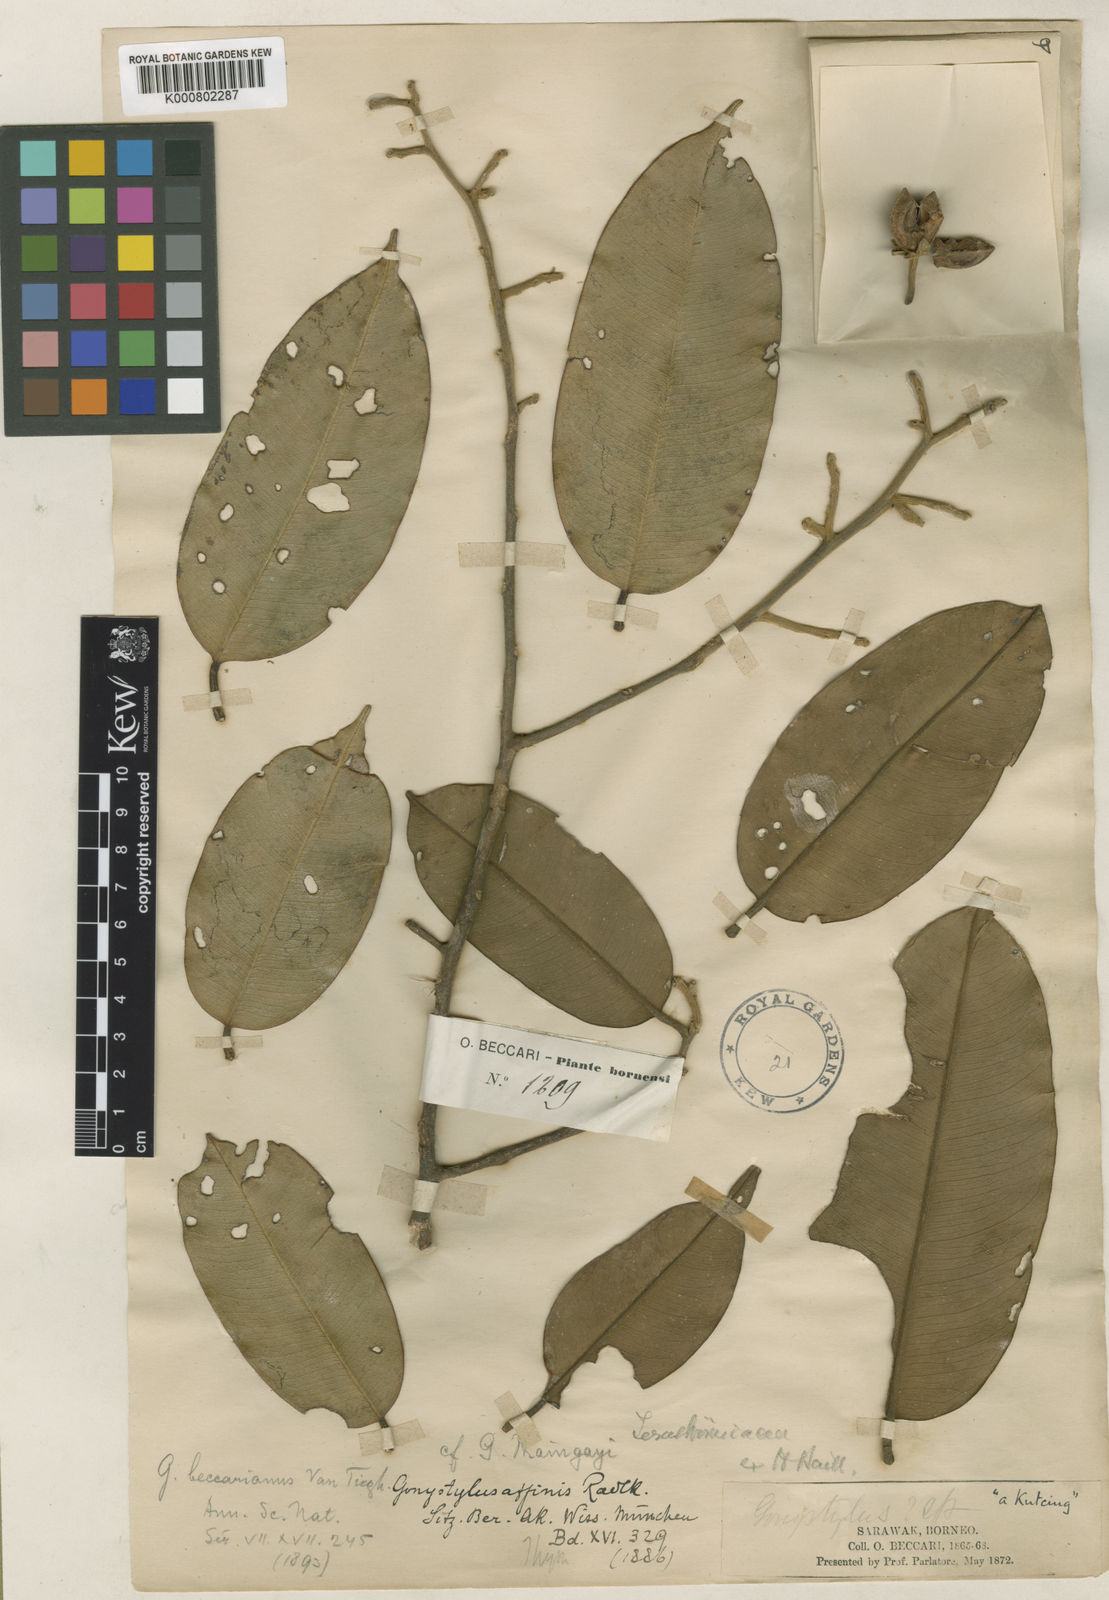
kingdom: Plantae
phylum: Tracheophyta
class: Magnoliopsida
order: Malvales
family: Thymelaeaceae
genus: Gonystylus
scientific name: Gonystylus affinis
